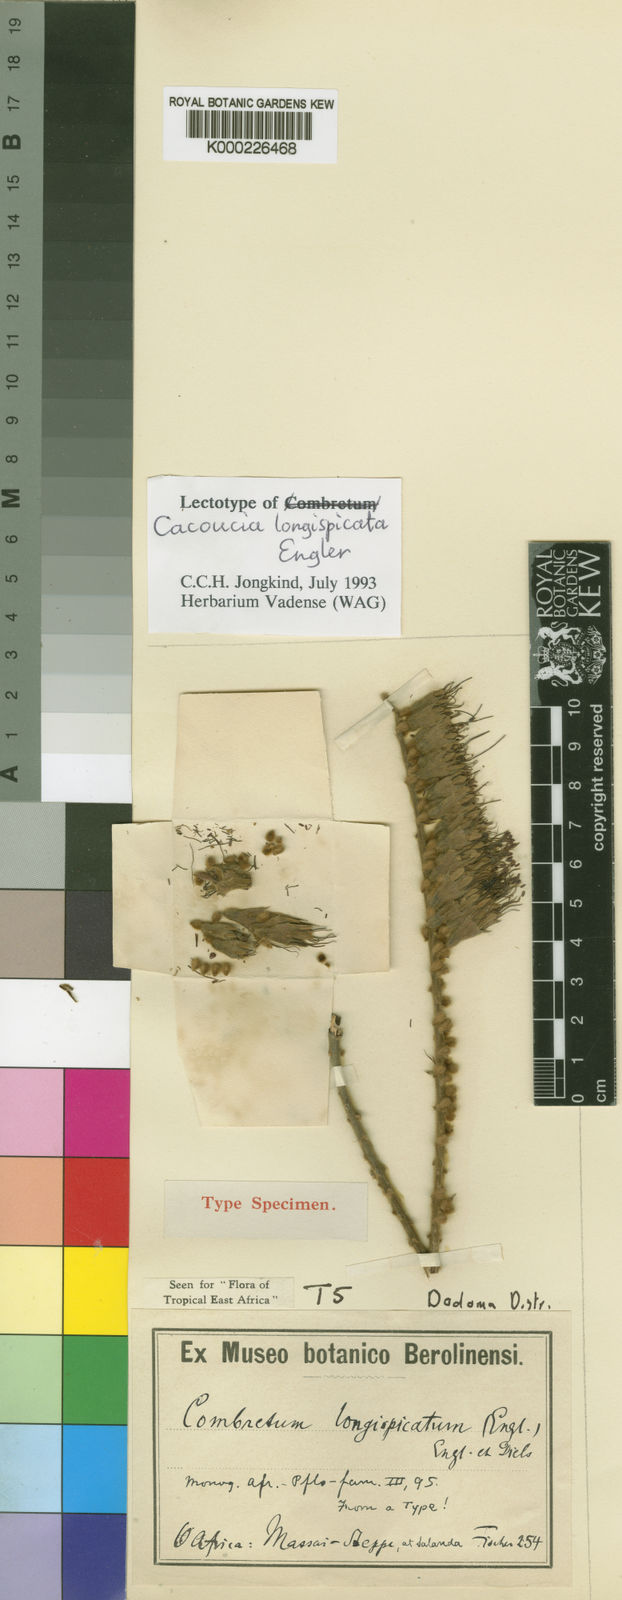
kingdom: Plantae
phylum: Tracheophyta
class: Magnoliopsida
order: Myrtales
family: Combretaceae
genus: Combretum
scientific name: Combretum longispicatum
